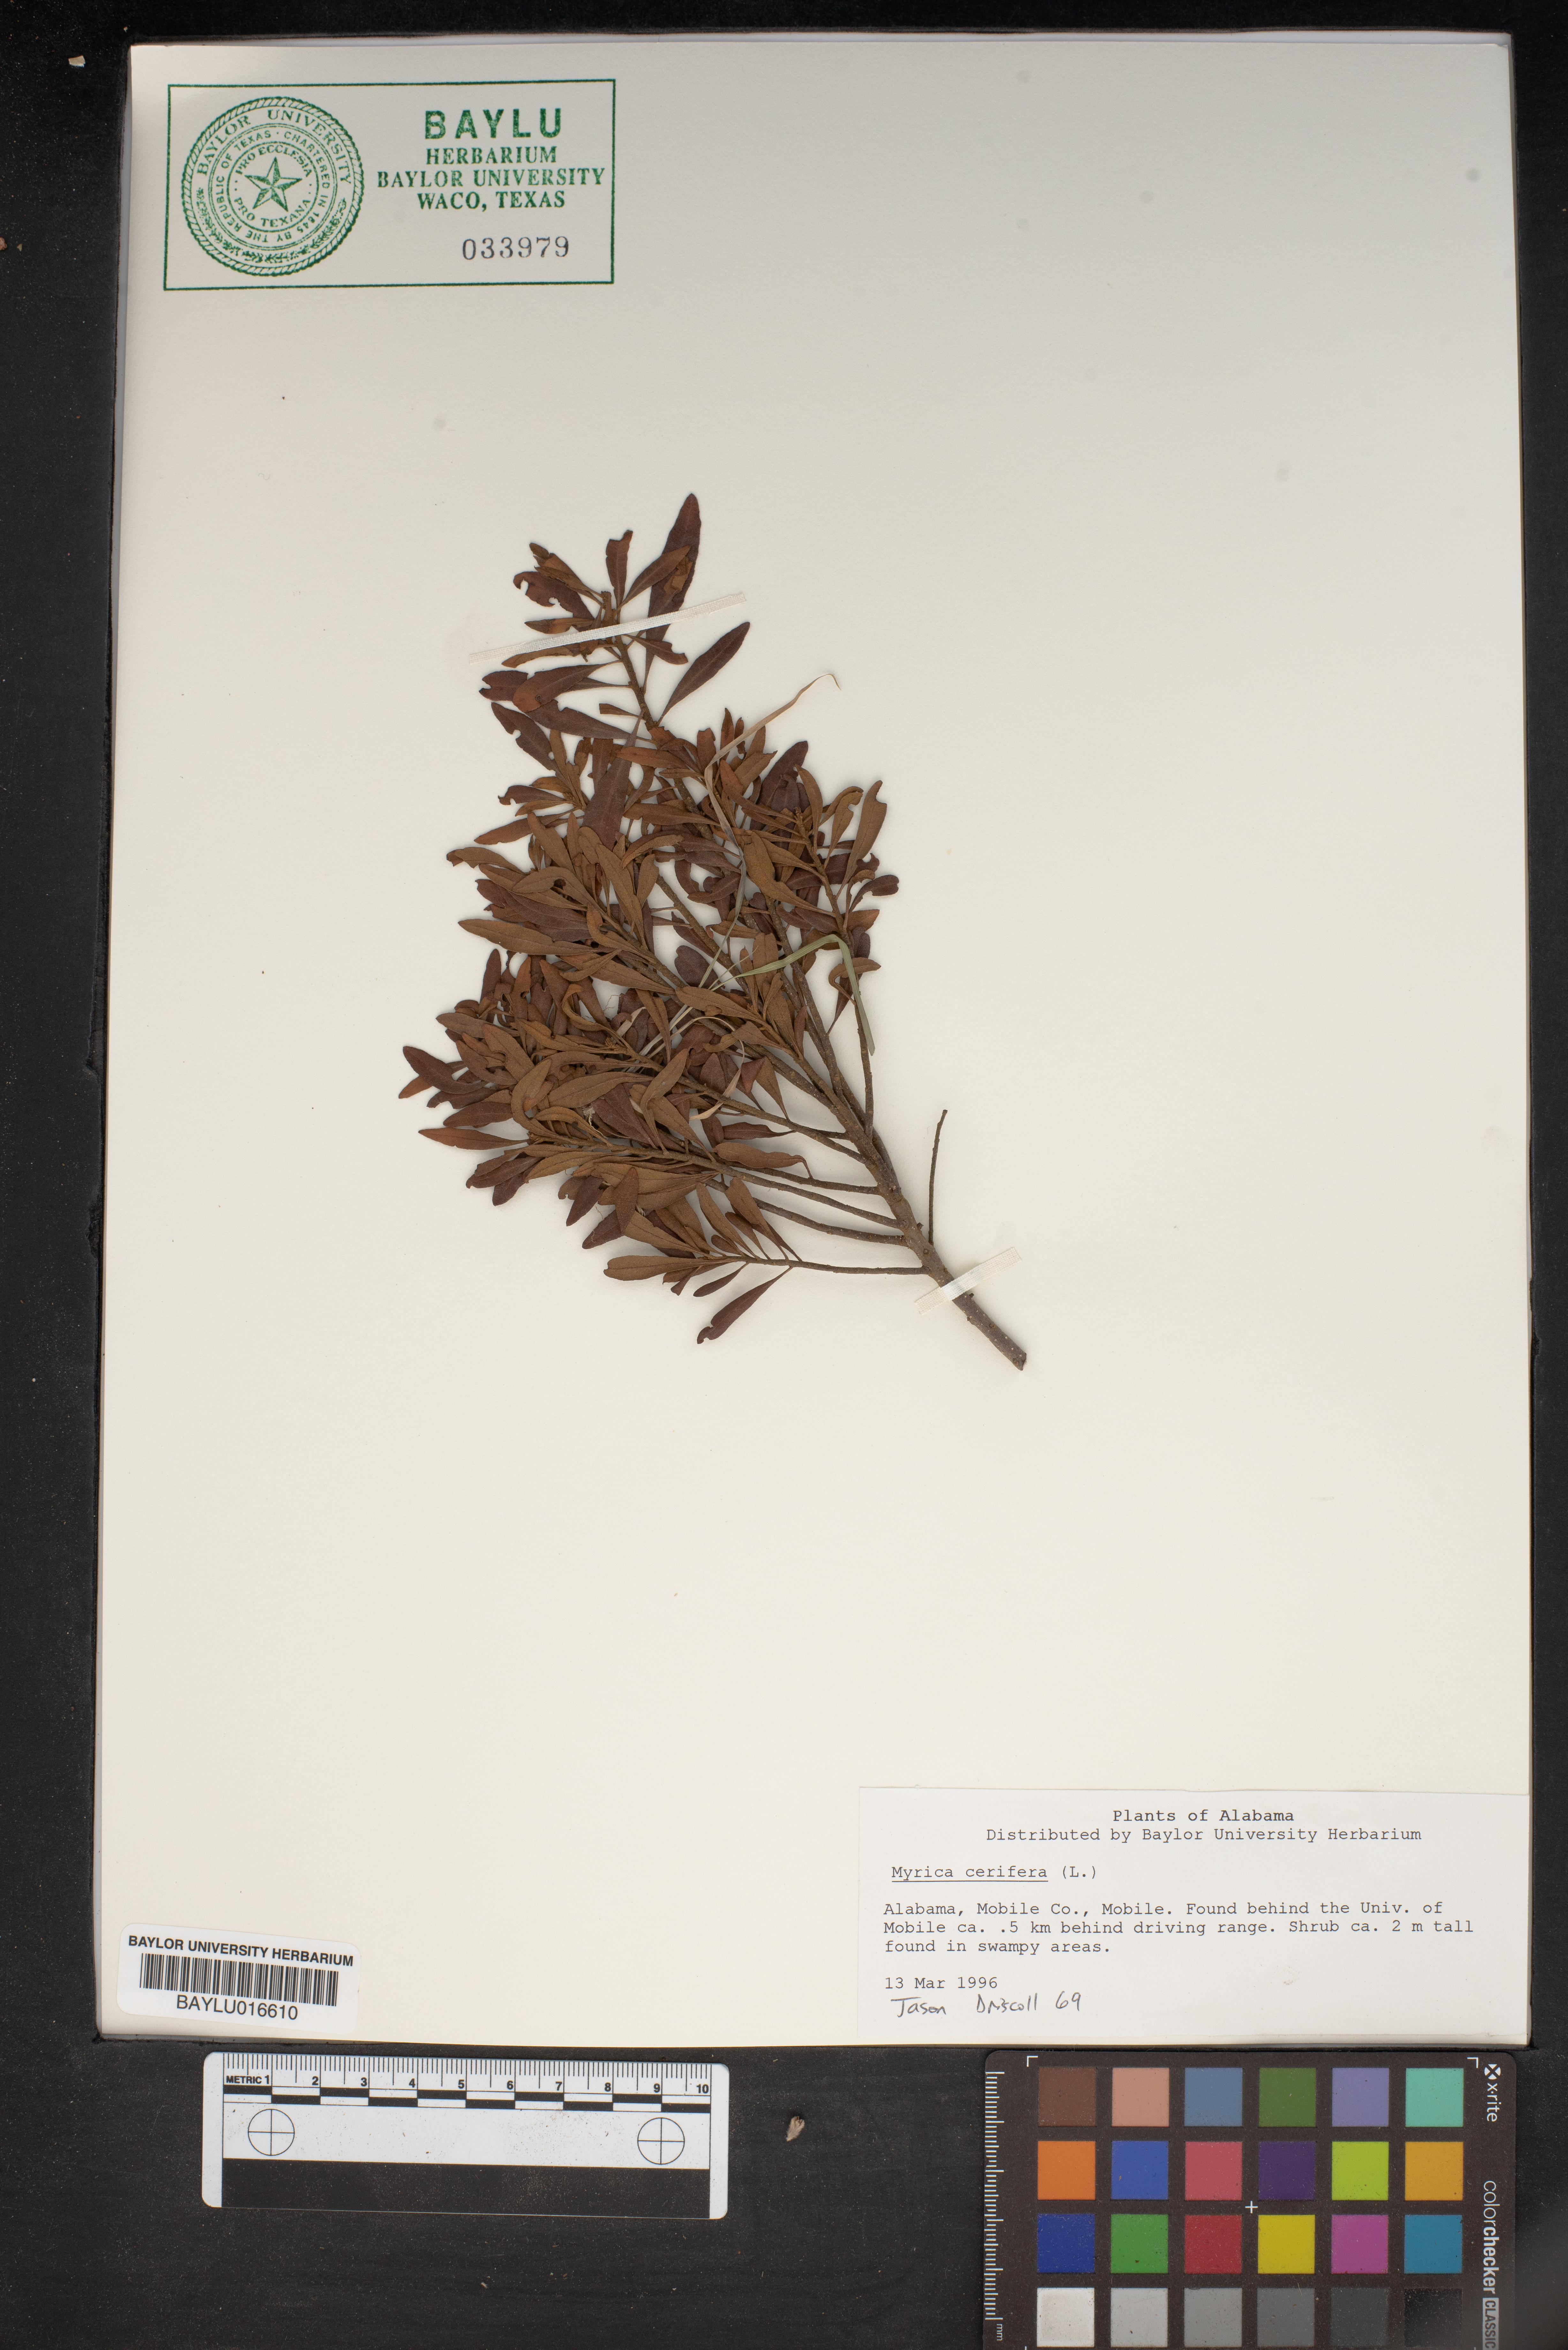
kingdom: Plantae
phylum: Tracheophyta
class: Magnoliopsida
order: Fagales
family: Myricaceae
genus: Morella
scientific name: Morella cerifera
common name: Wax myrtle
